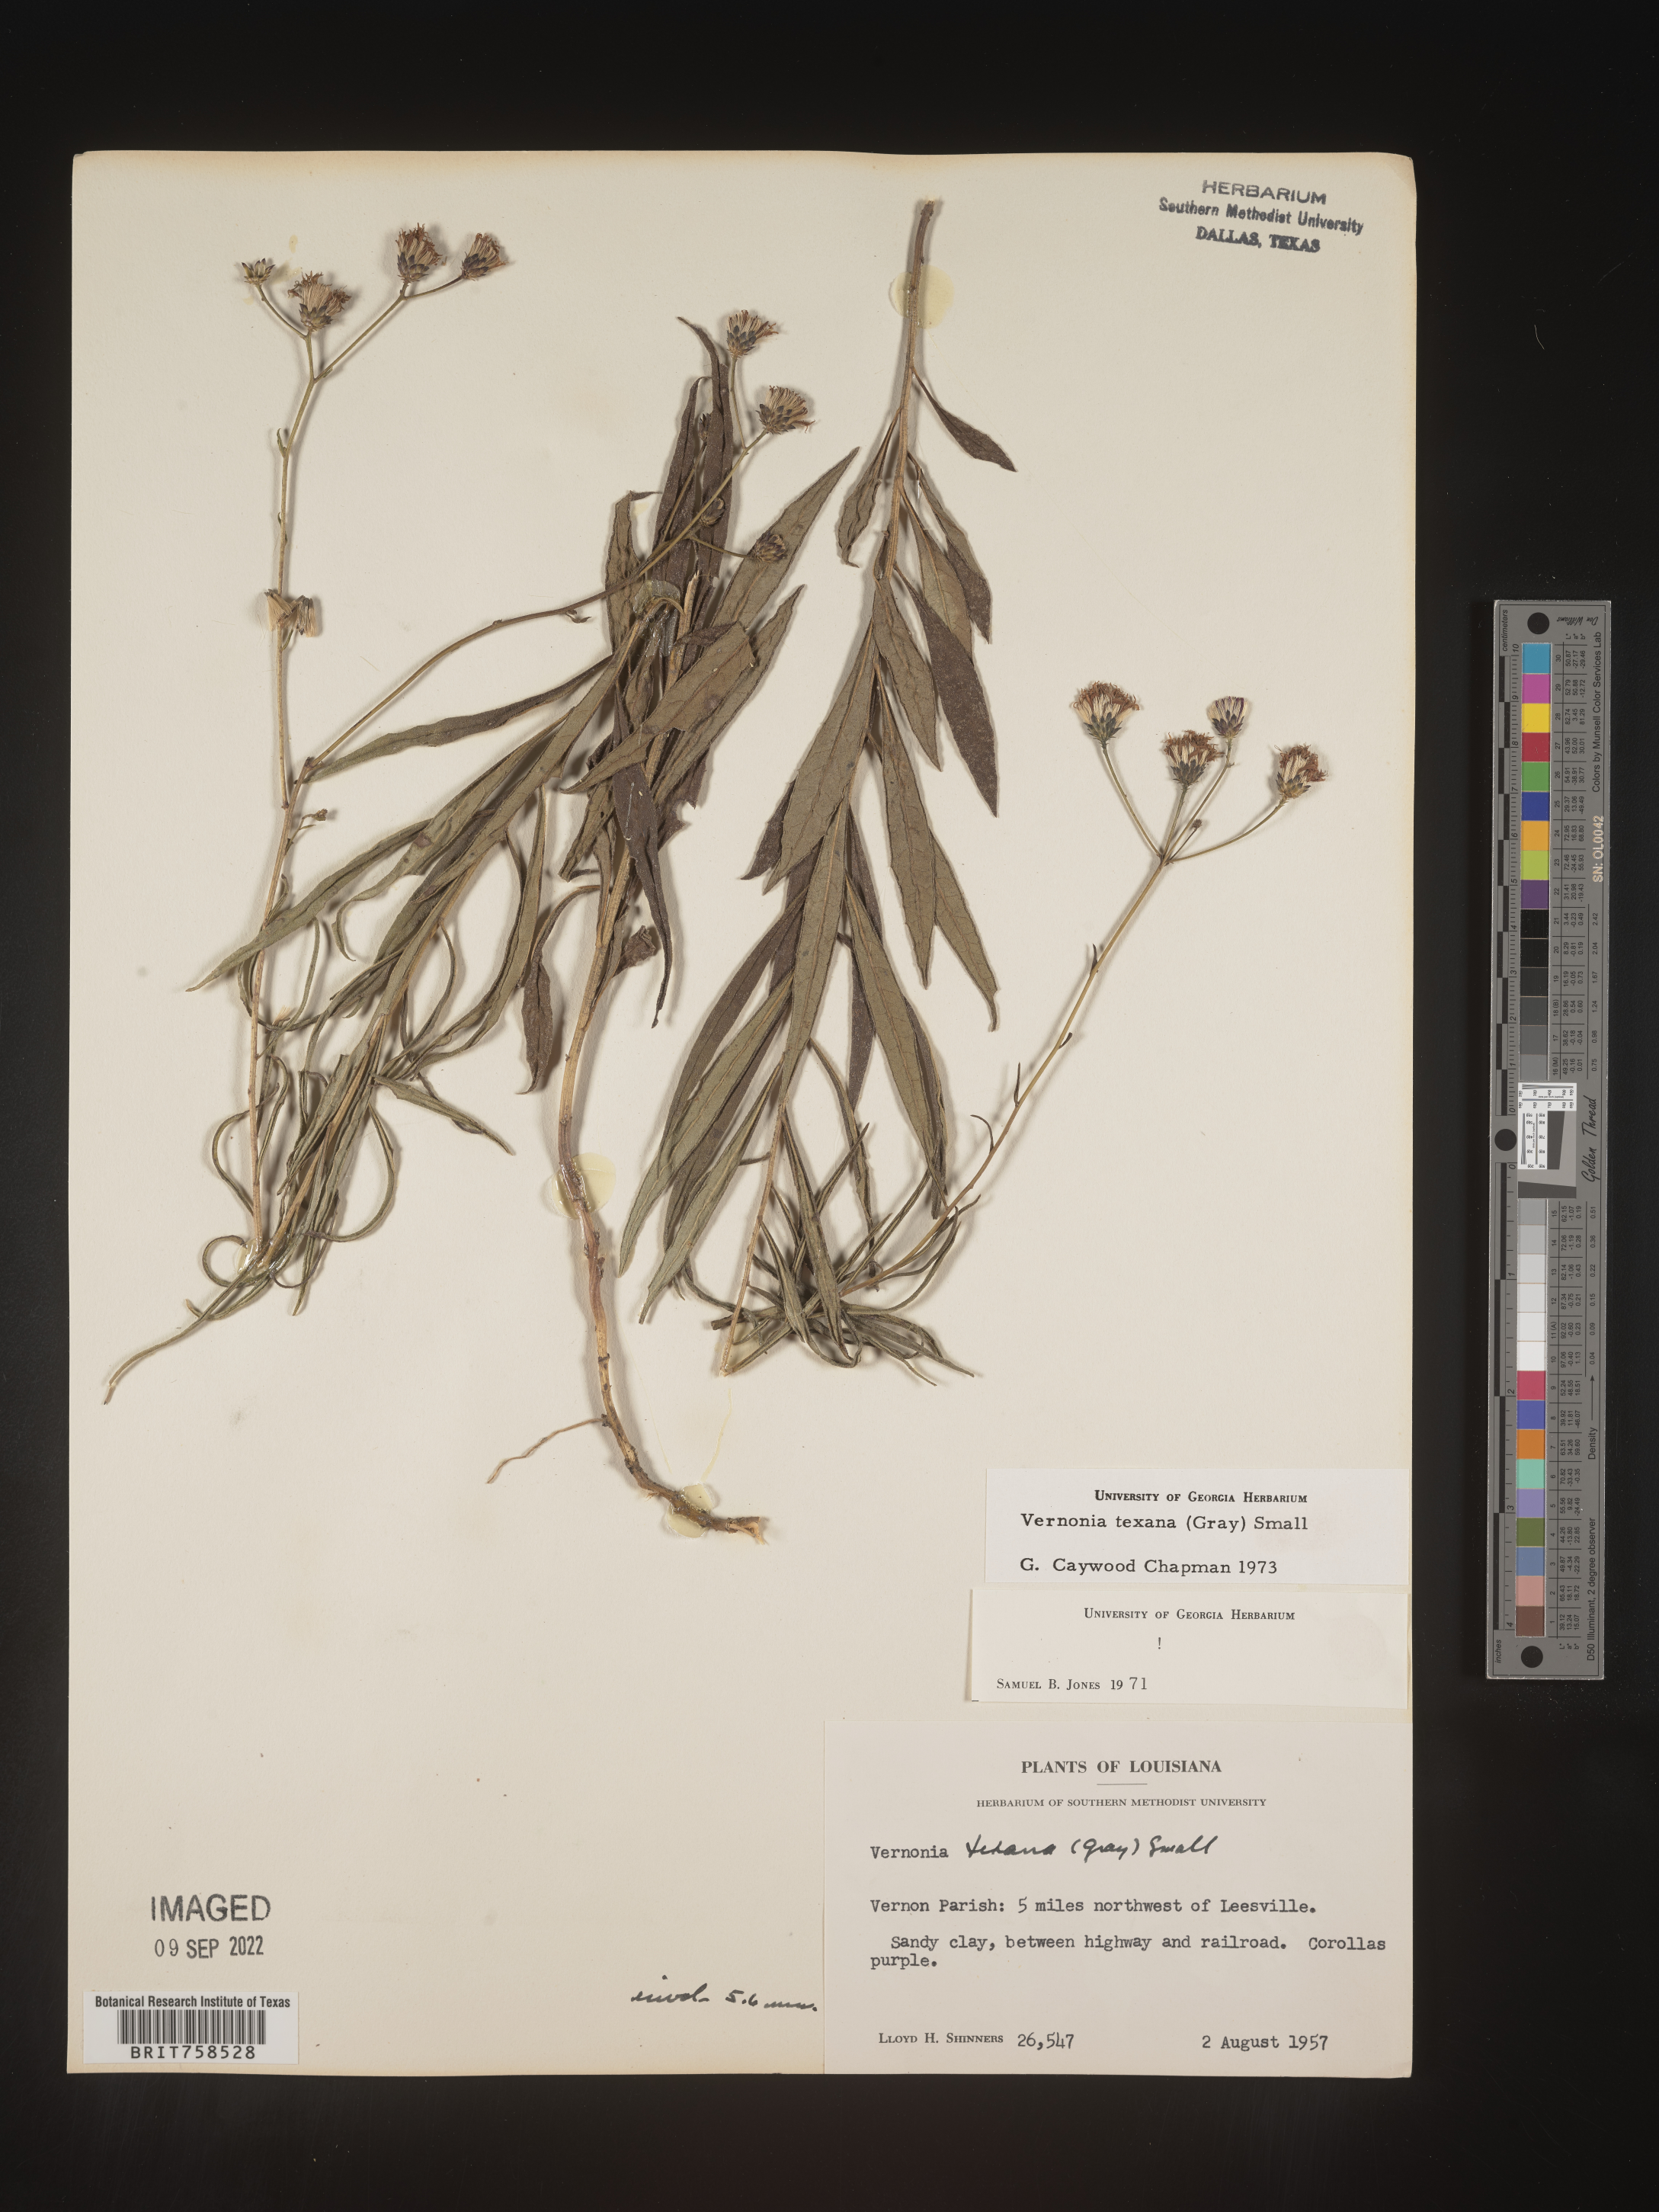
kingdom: Plantae
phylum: Tracheophyta
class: Magnoliopsida
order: Asterales
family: Asteraceae
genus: Vernonia
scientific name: Vernonia texana
